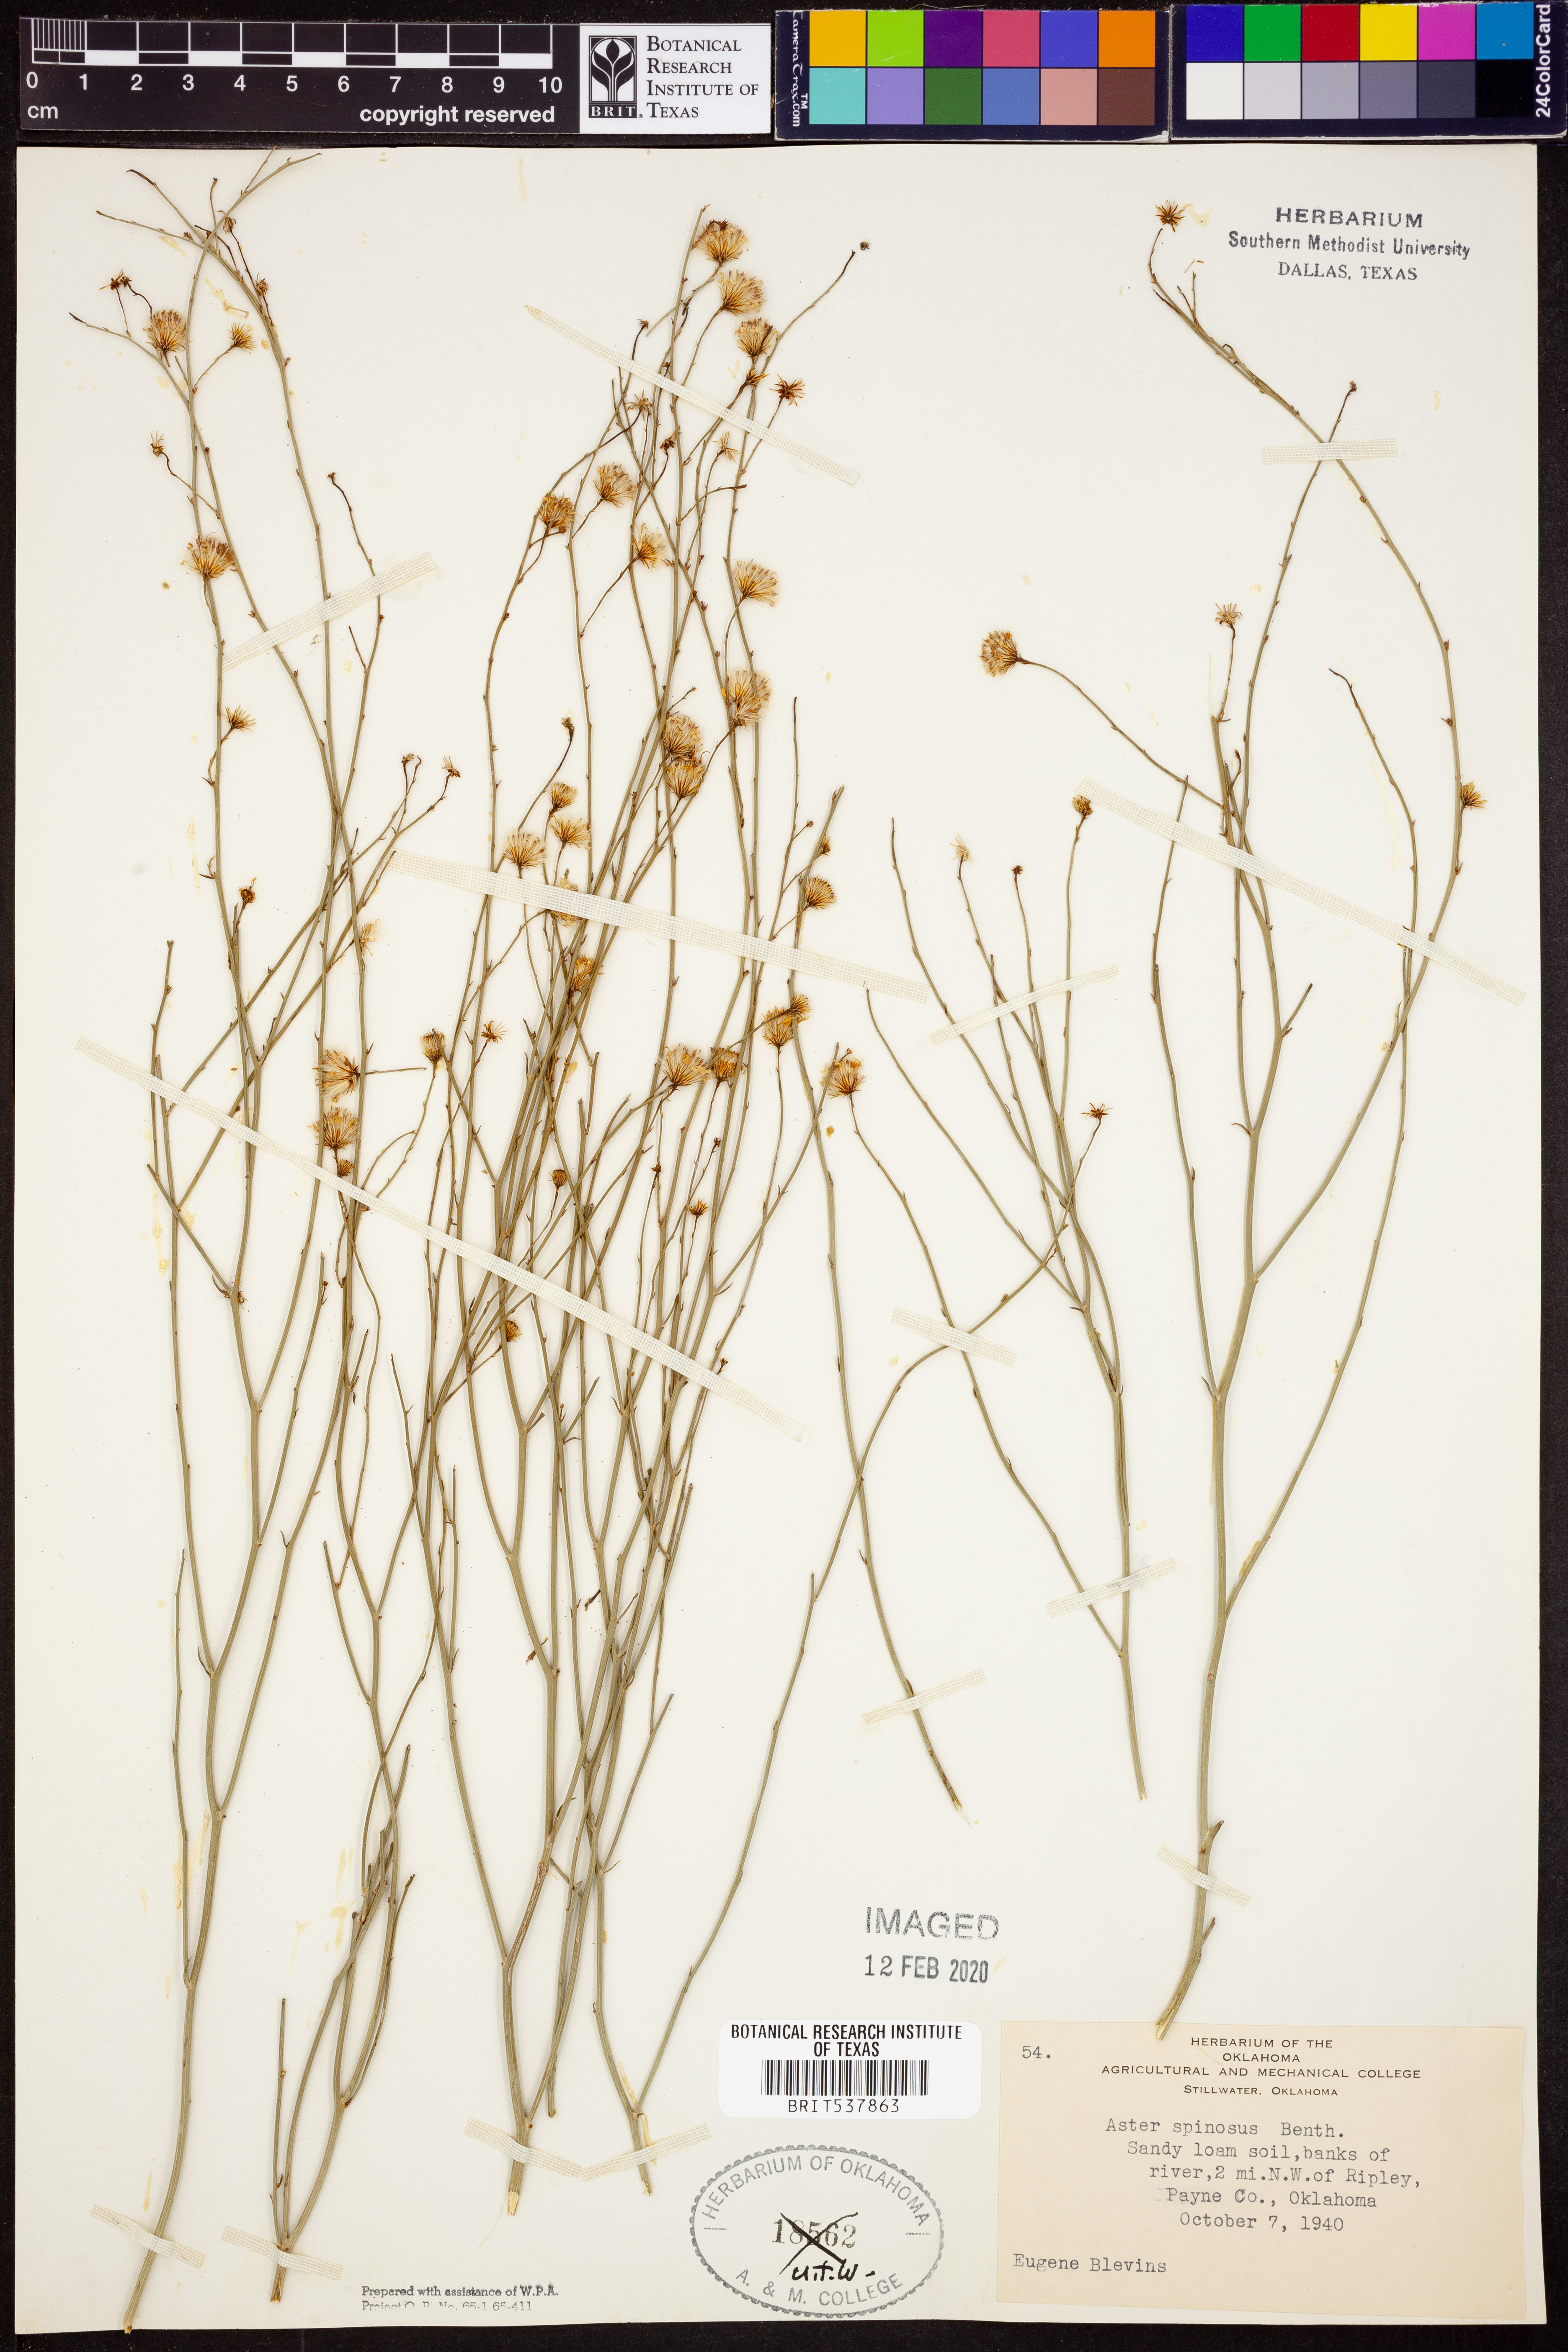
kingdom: Plantae
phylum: Tracheophyta
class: Magnoliopsida
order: Asterales
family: Asteraceae
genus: Chloracantha
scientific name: Chloracantha spinosa
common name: Mexican devilweed
